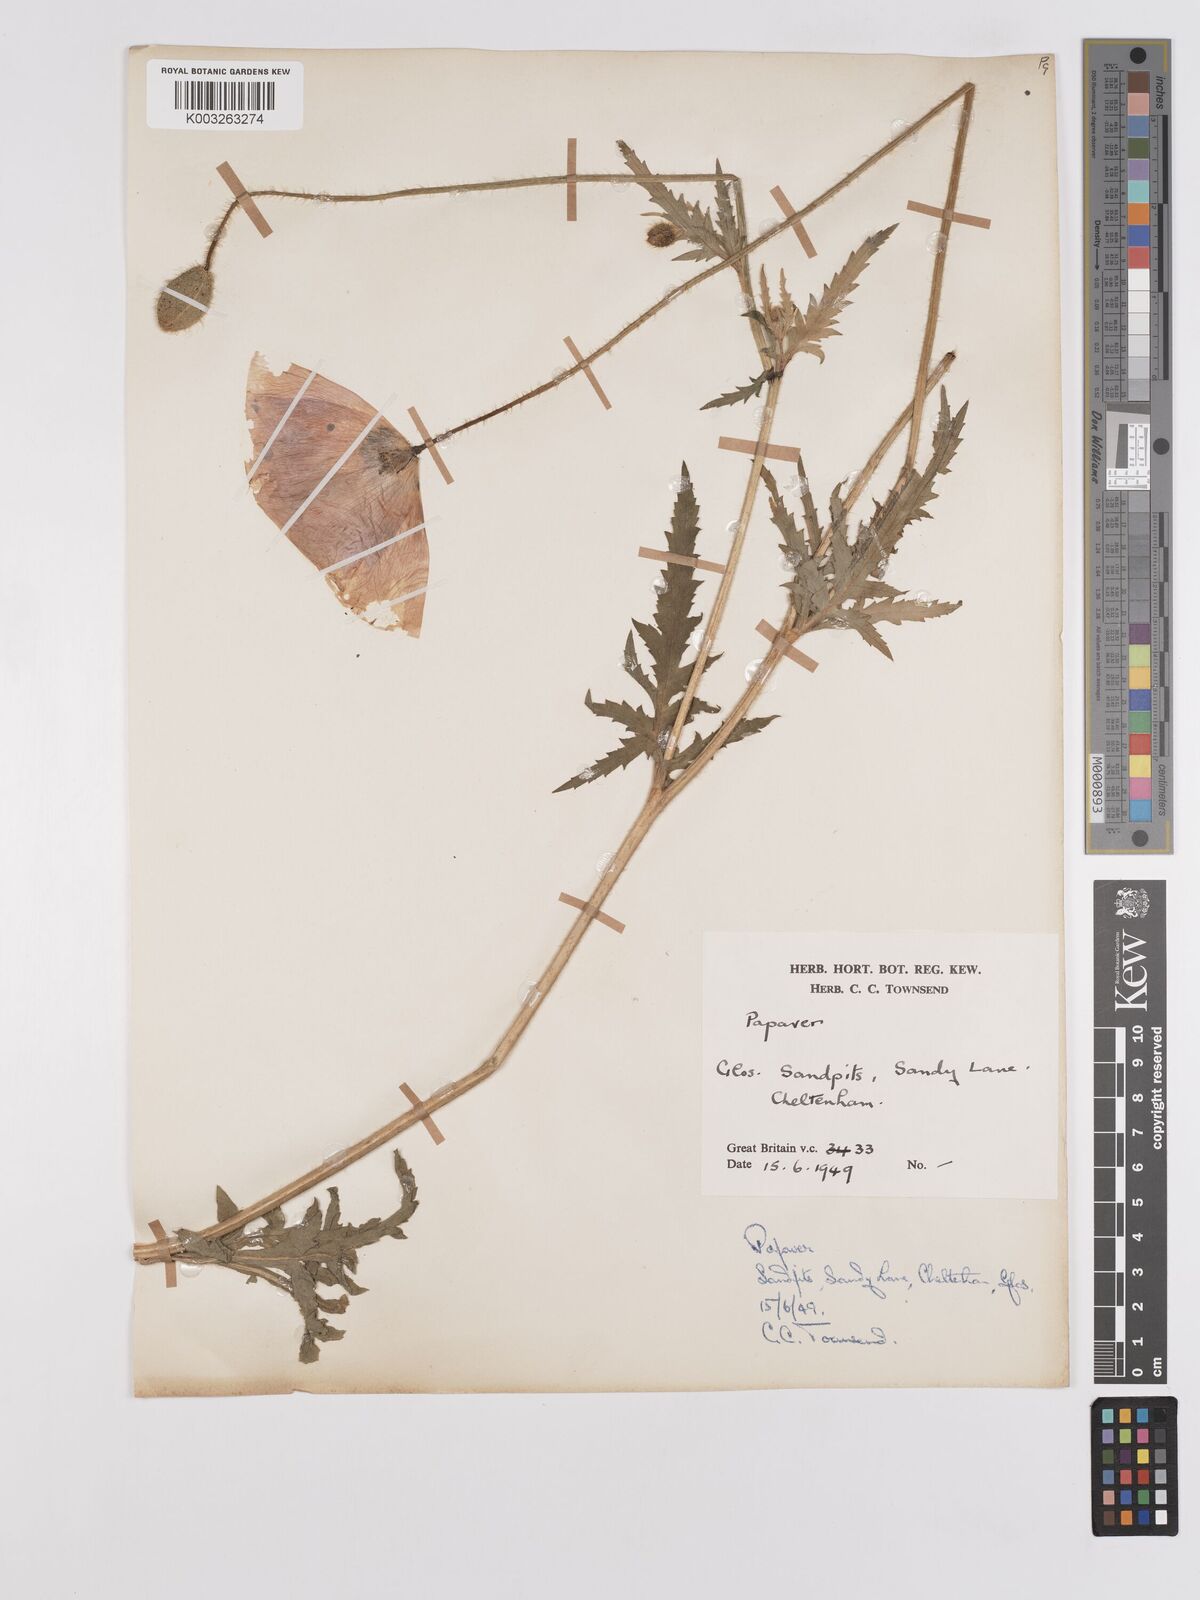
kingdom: Plantae
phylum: Tracheophyta
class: Magnoliopsida
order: Ranunculales
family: Papaveraceae
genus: Papaver
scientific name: Papaver
